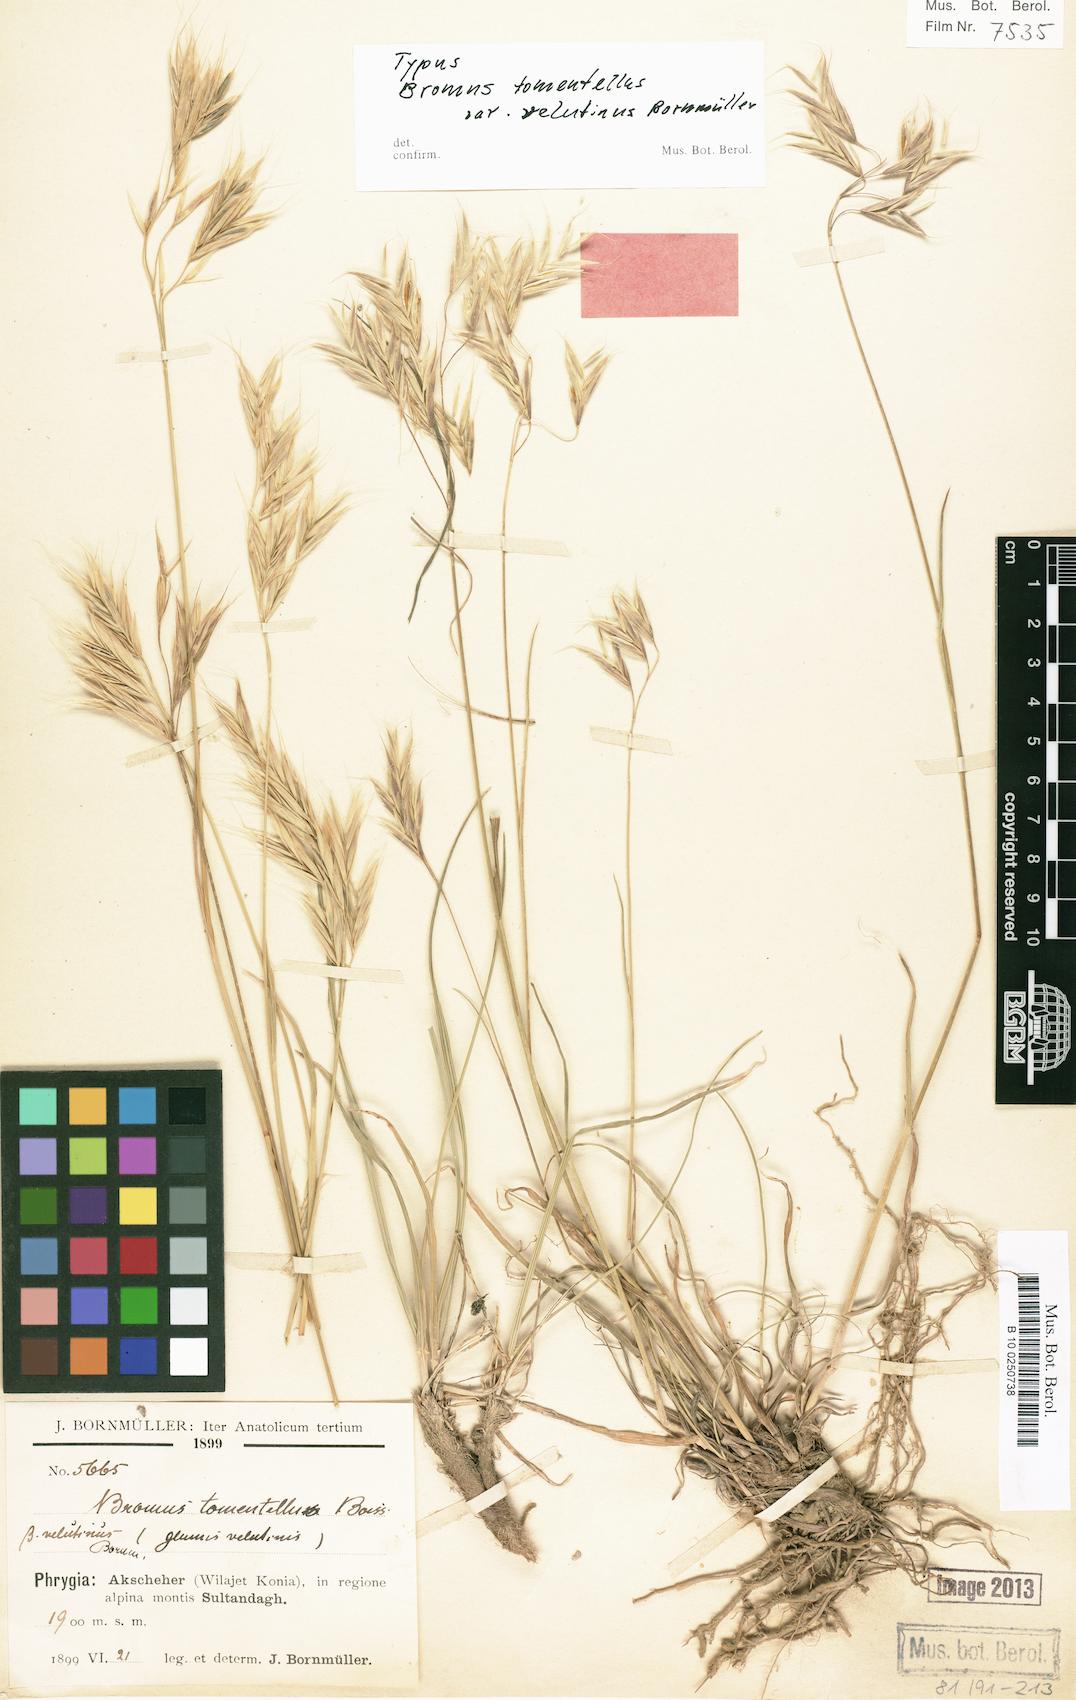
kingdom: Plantae
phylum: Tracheophyta
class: Liliopsida
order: Poales
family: Poaceae
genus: Bromus
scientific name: Bromus tomentellus
